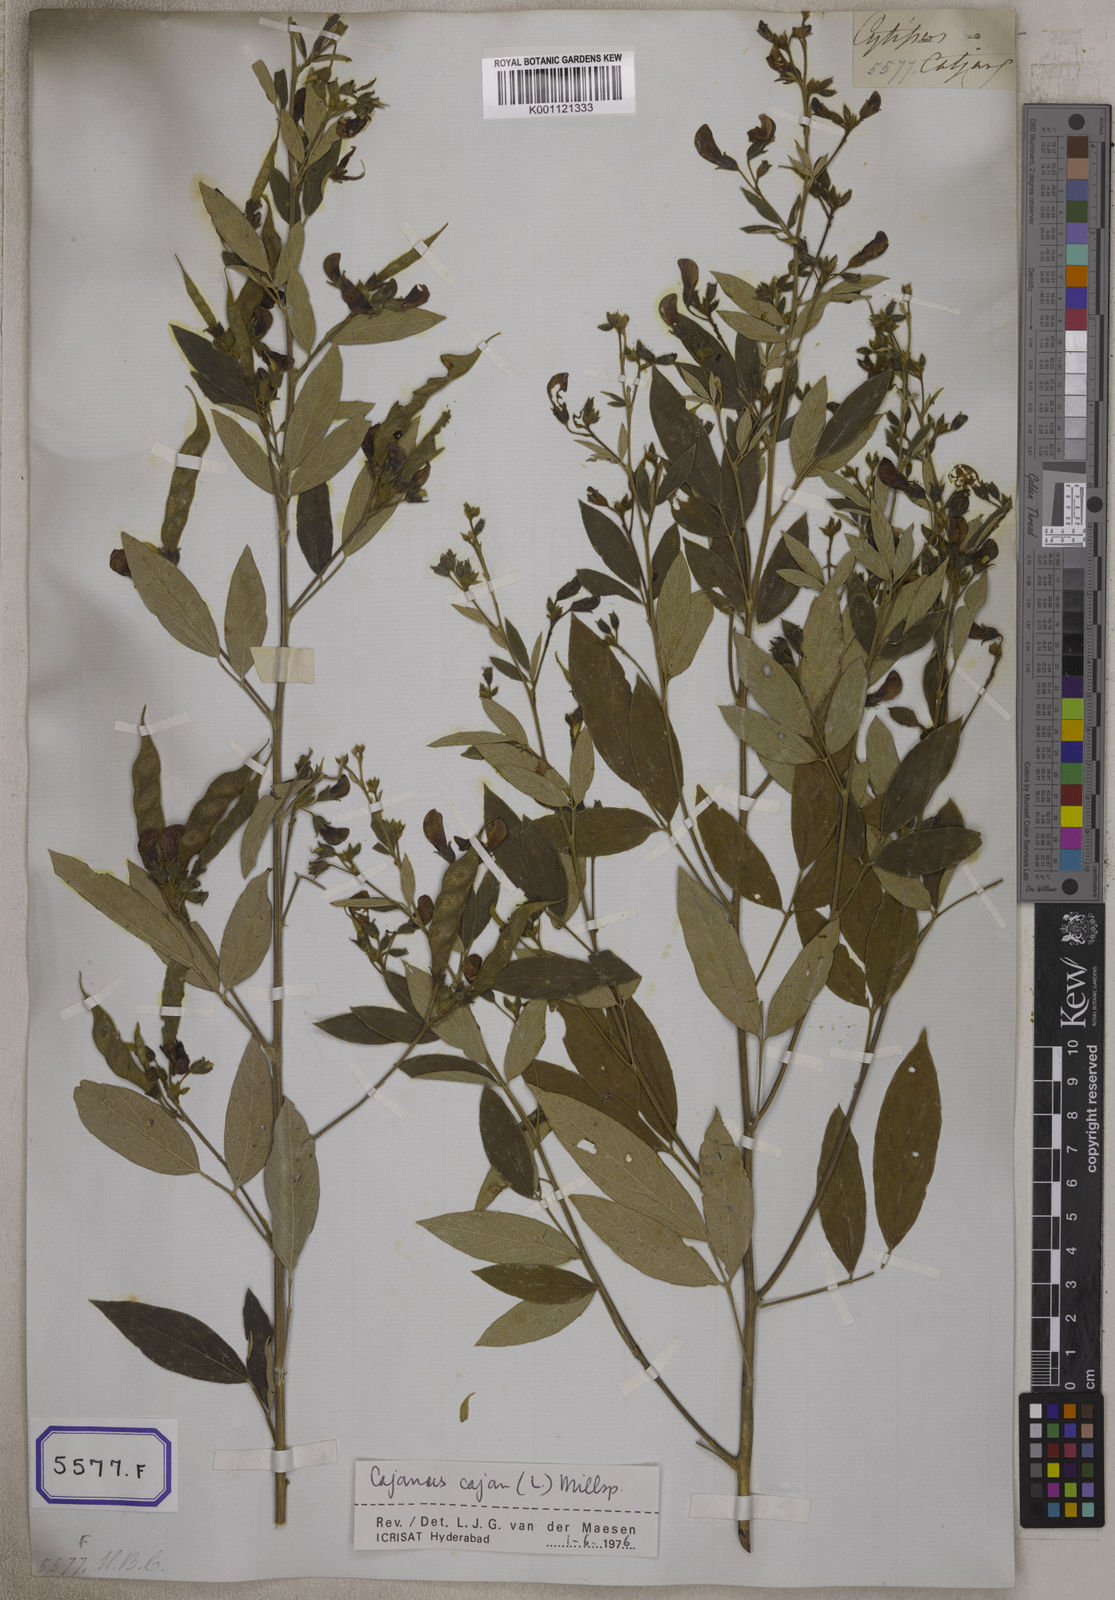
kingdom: Plantae
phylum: Tracheophyta
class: Magnoliopsida
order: Fabales
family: Fabaceae
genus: Cajanus
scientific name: Cajanus cajan
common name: Pigeonpea
